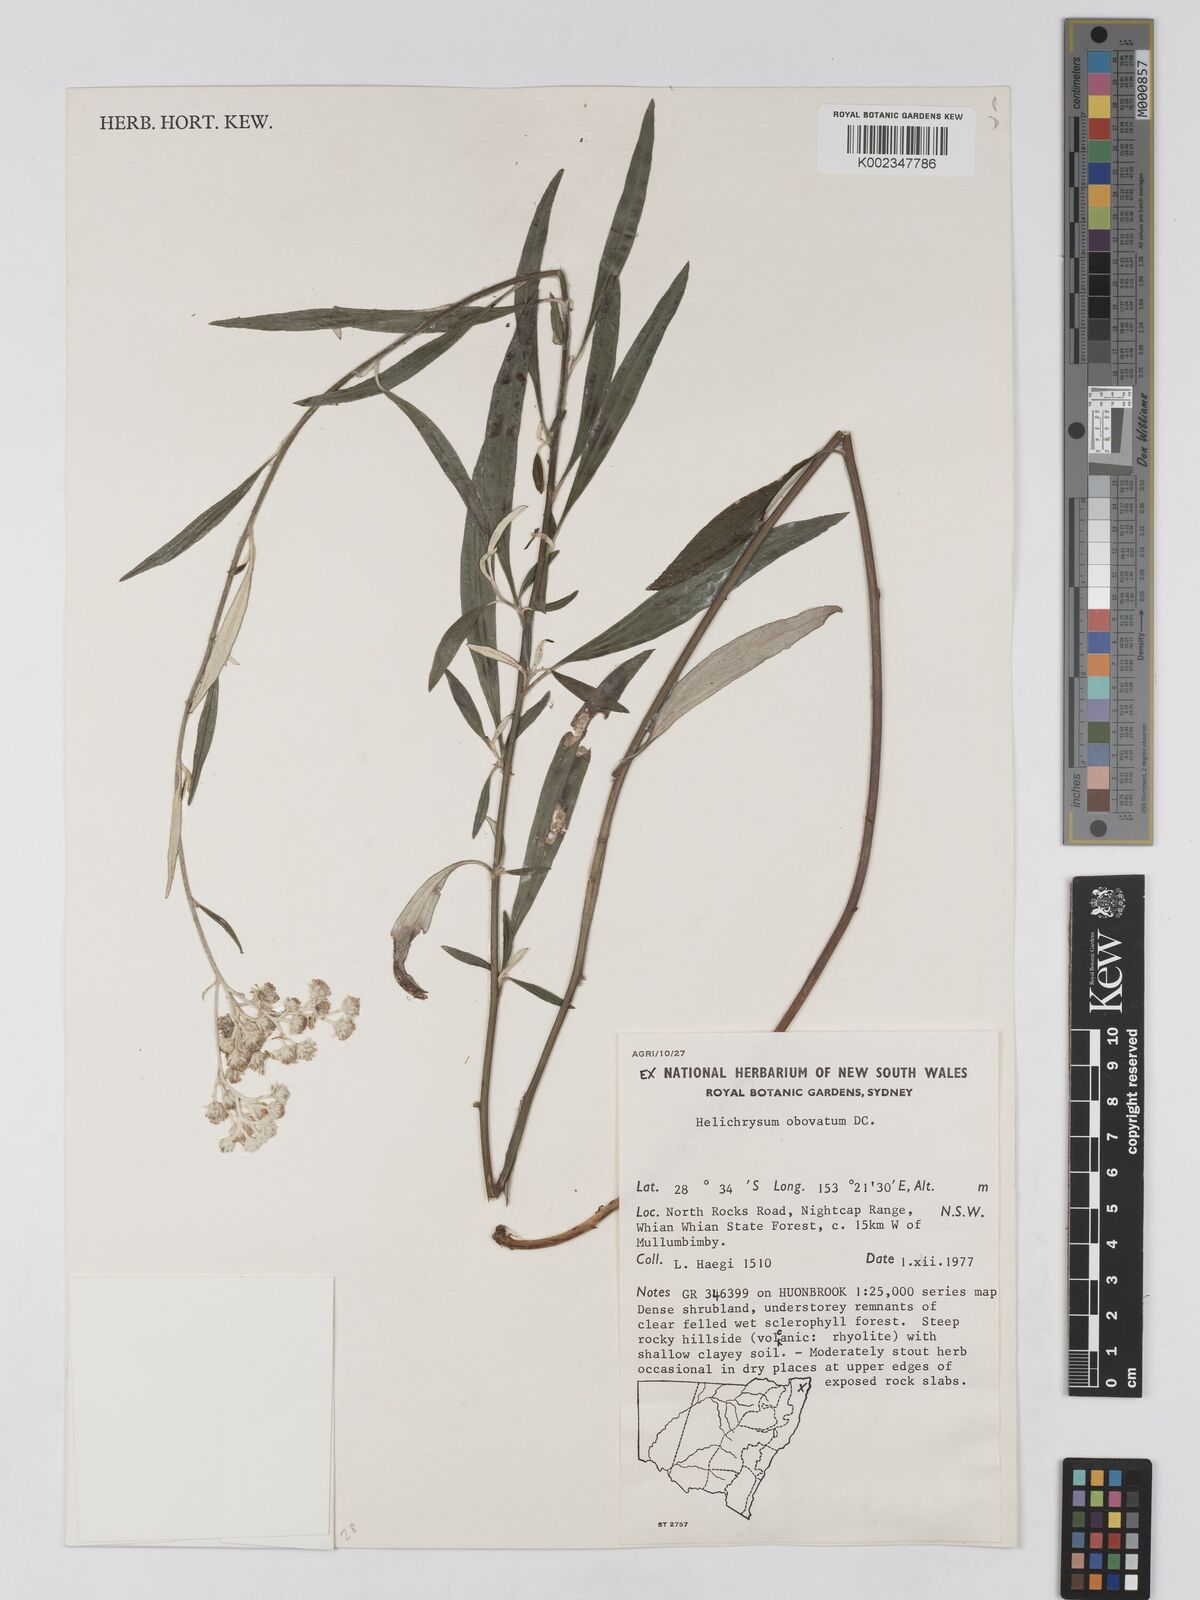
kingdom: Plantae
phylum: Tracheophyta
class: Magnoliopsida
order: Asterales
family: Asteraceae
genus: Ozothamnus
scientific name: Ozothamnus whitei
